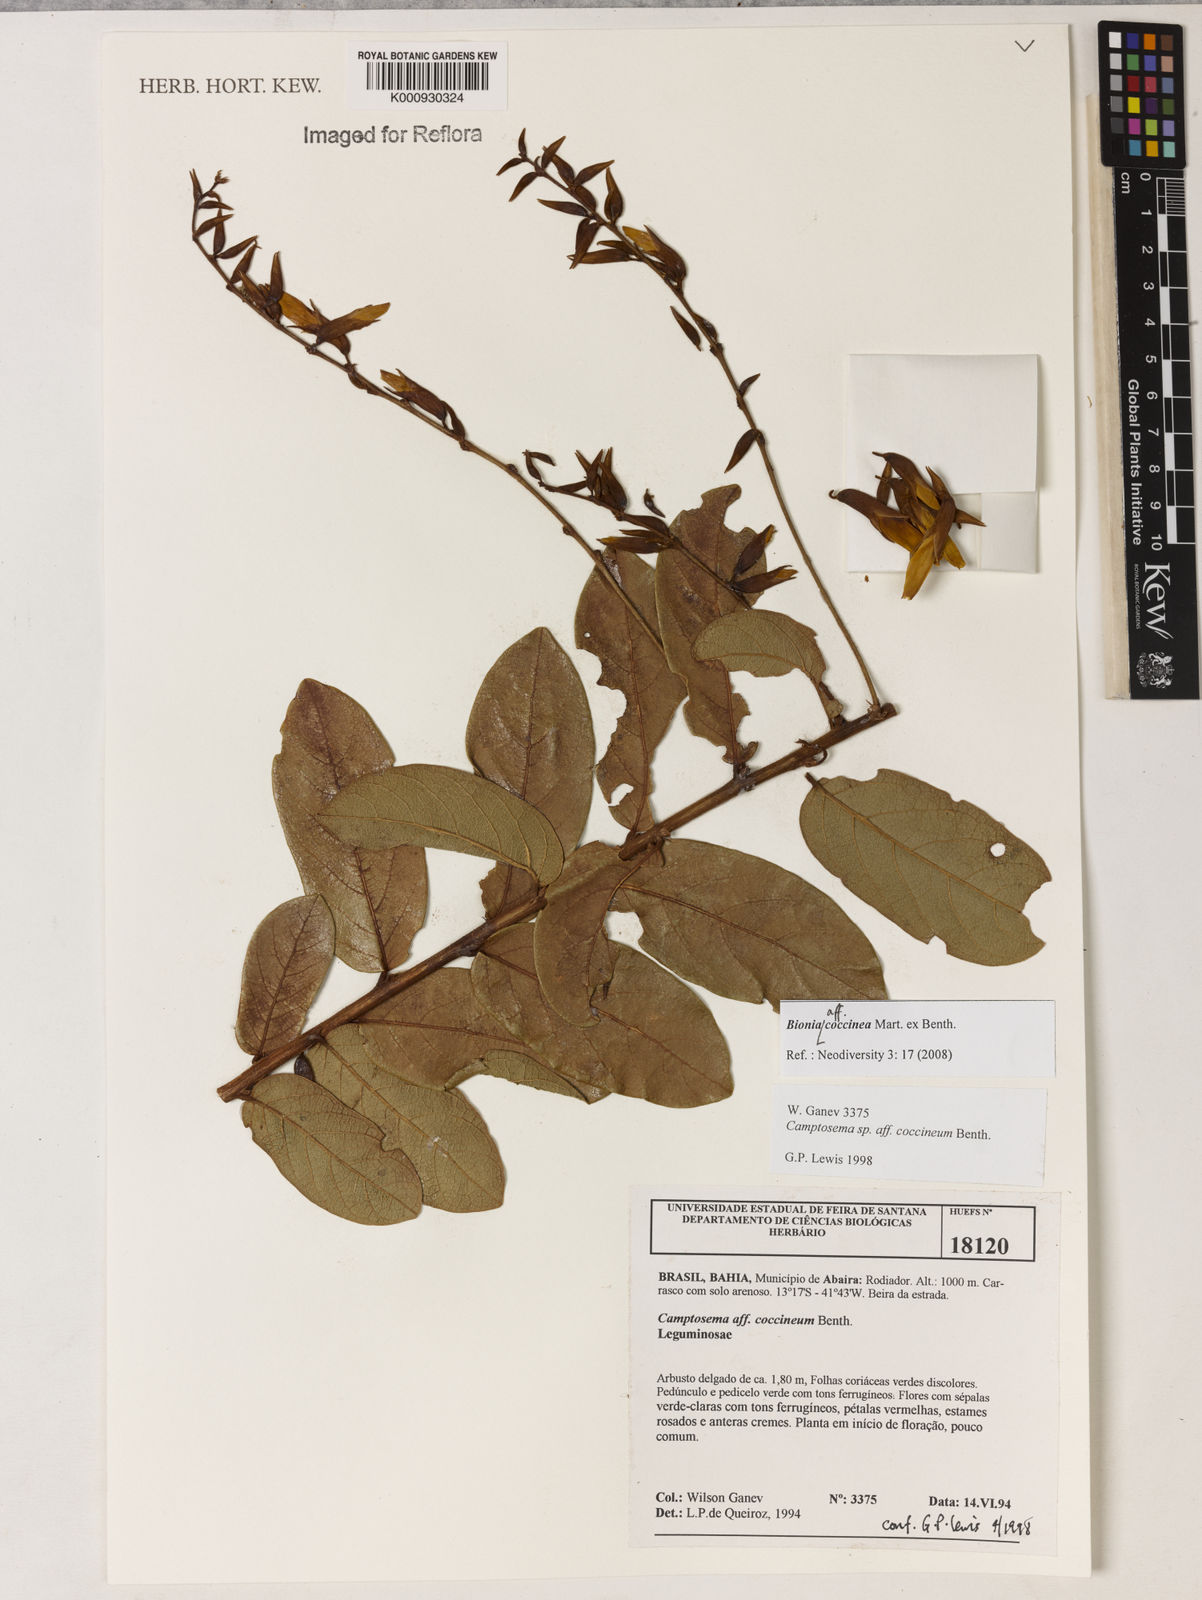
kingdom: Plantae
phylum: Tracheophyta
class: Magnoliopsida
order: Fabales
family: Fabaceae
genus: Camptosema
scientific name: Camptosema coccineum
